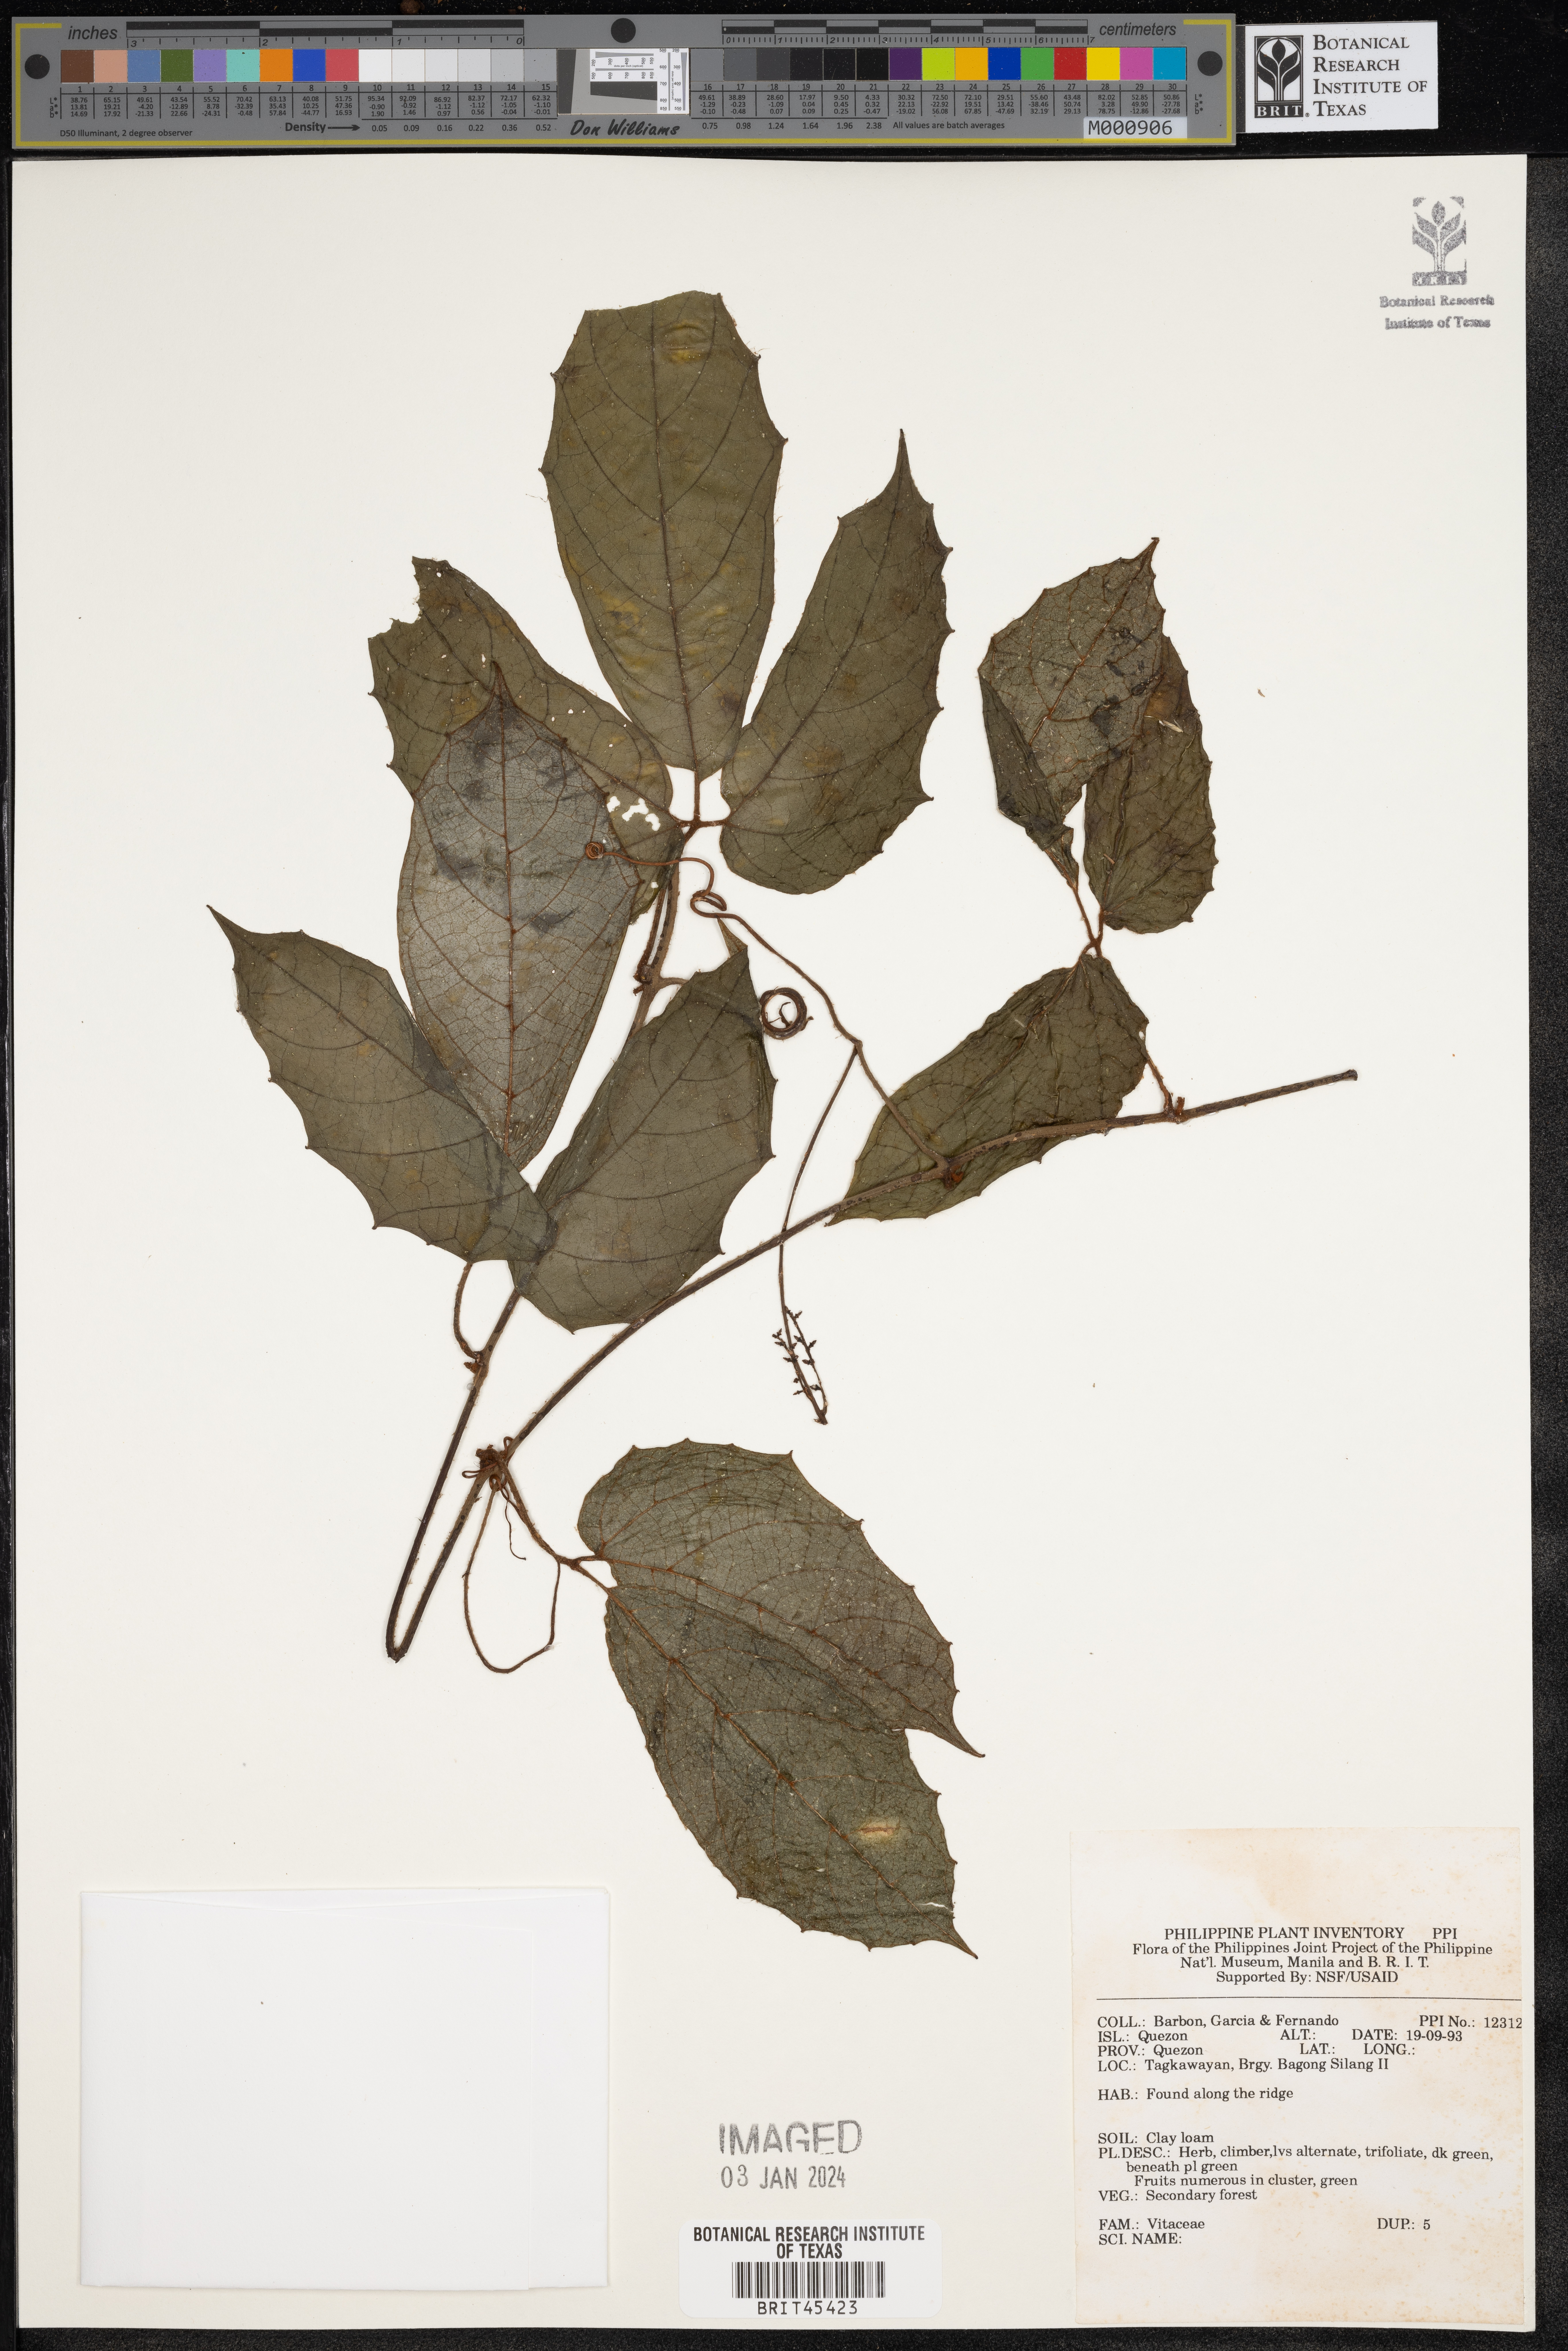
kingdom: Plantae
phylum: Tracheophyta
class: Magnoliopsida
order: Vitales
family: Vitaceae
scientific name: Vitaceae
